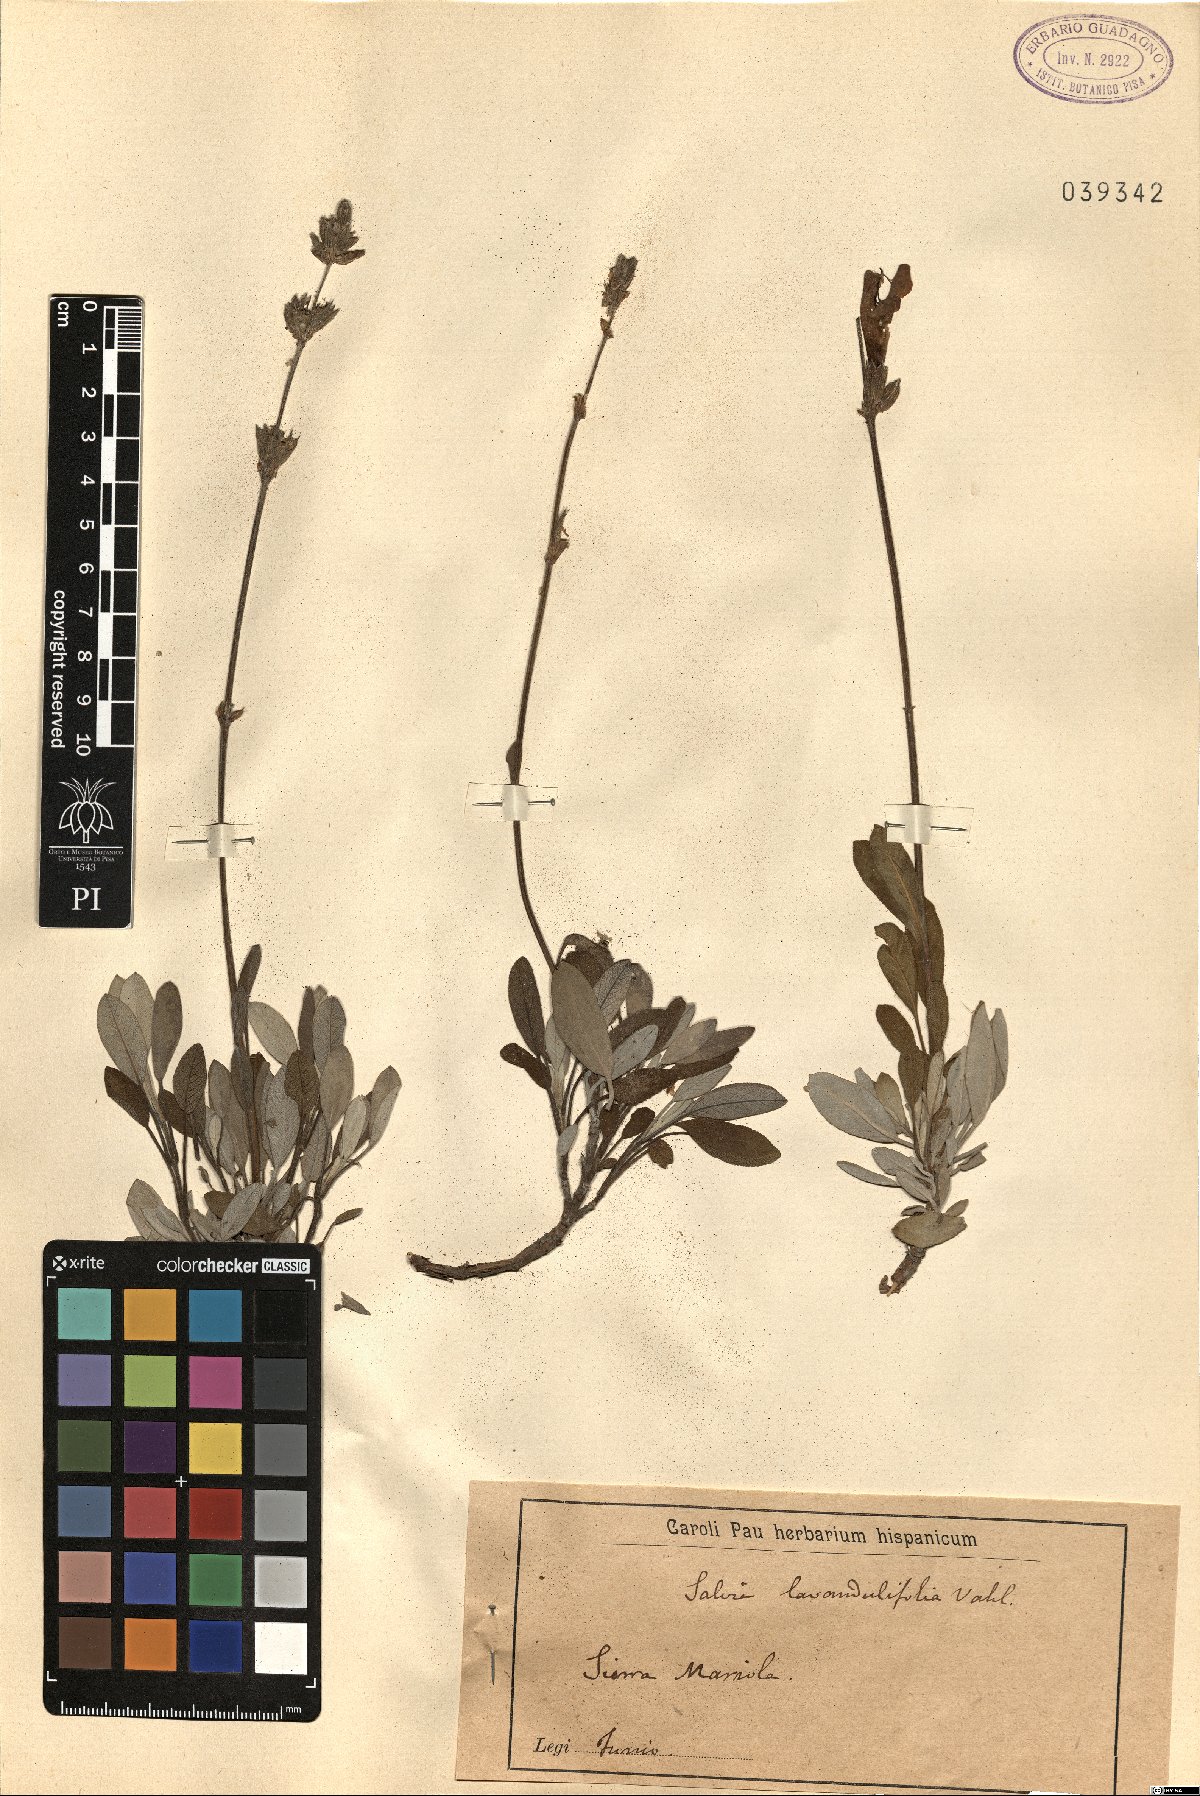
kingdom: Plantae
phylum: Tracheophyta
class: Magnoliopsida
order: Lamiales
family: Lamiaceae
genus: Salvia
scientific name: Salvia officinalis
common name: Sage
